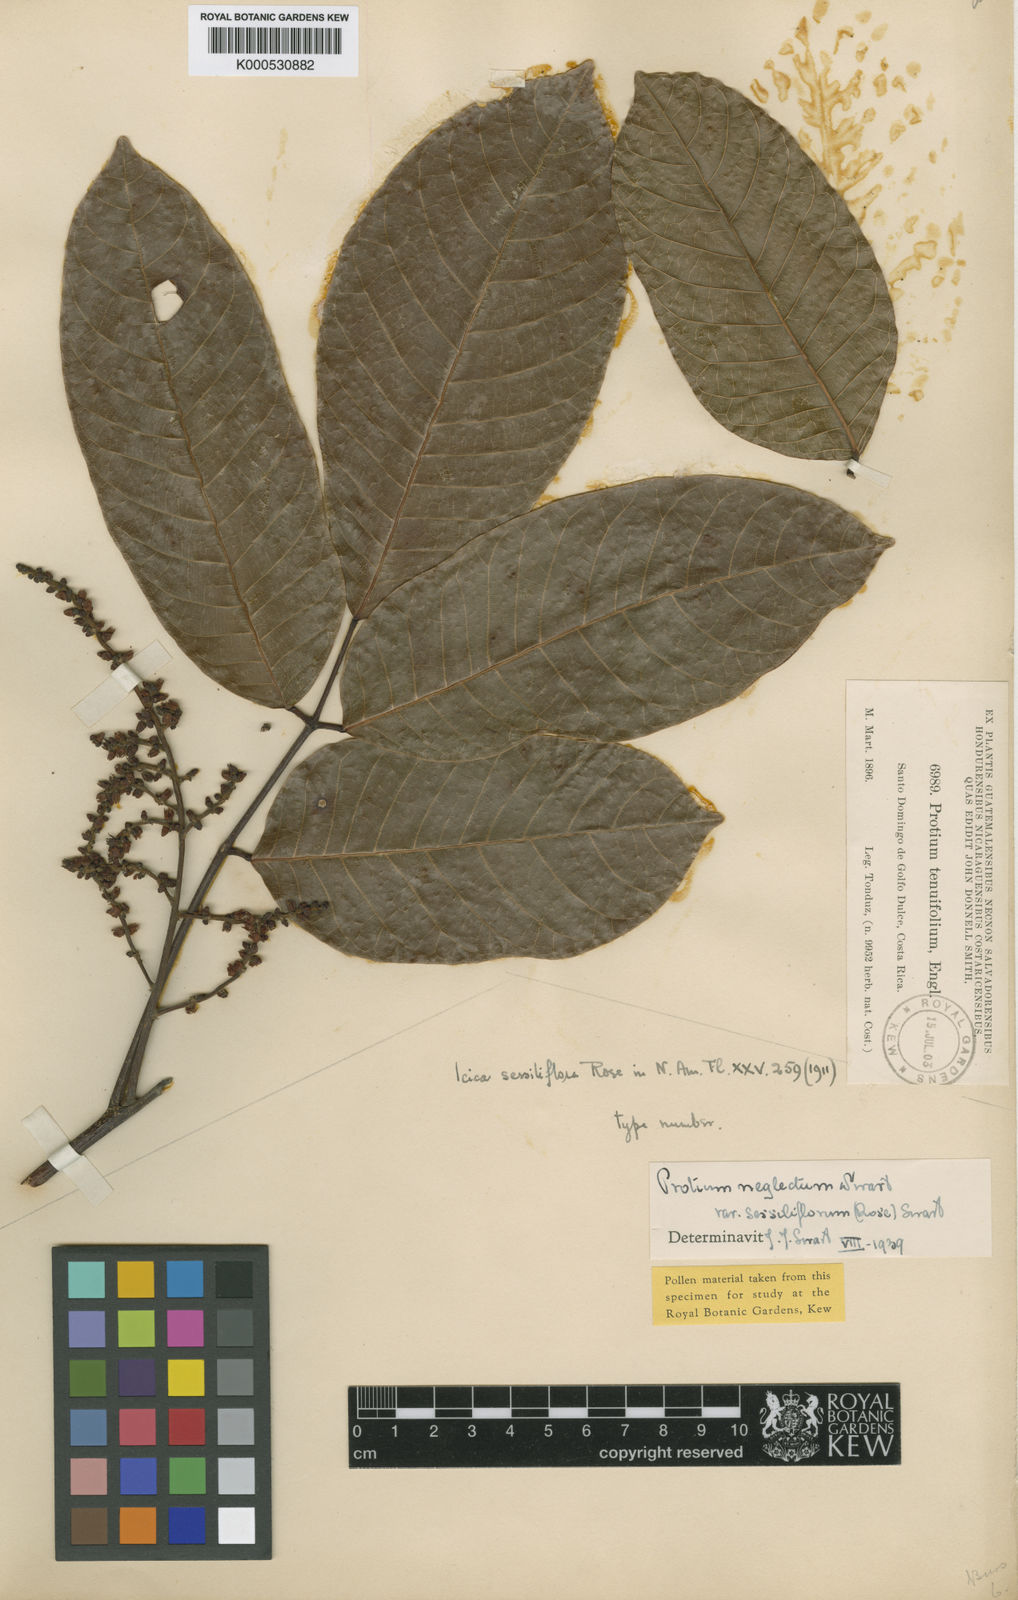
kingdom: Plantae
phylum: Tracheophyta
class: Magnoliopsida
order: Sapindales
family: Burseraceae
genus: Protium
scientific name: Protium tenuifolium
